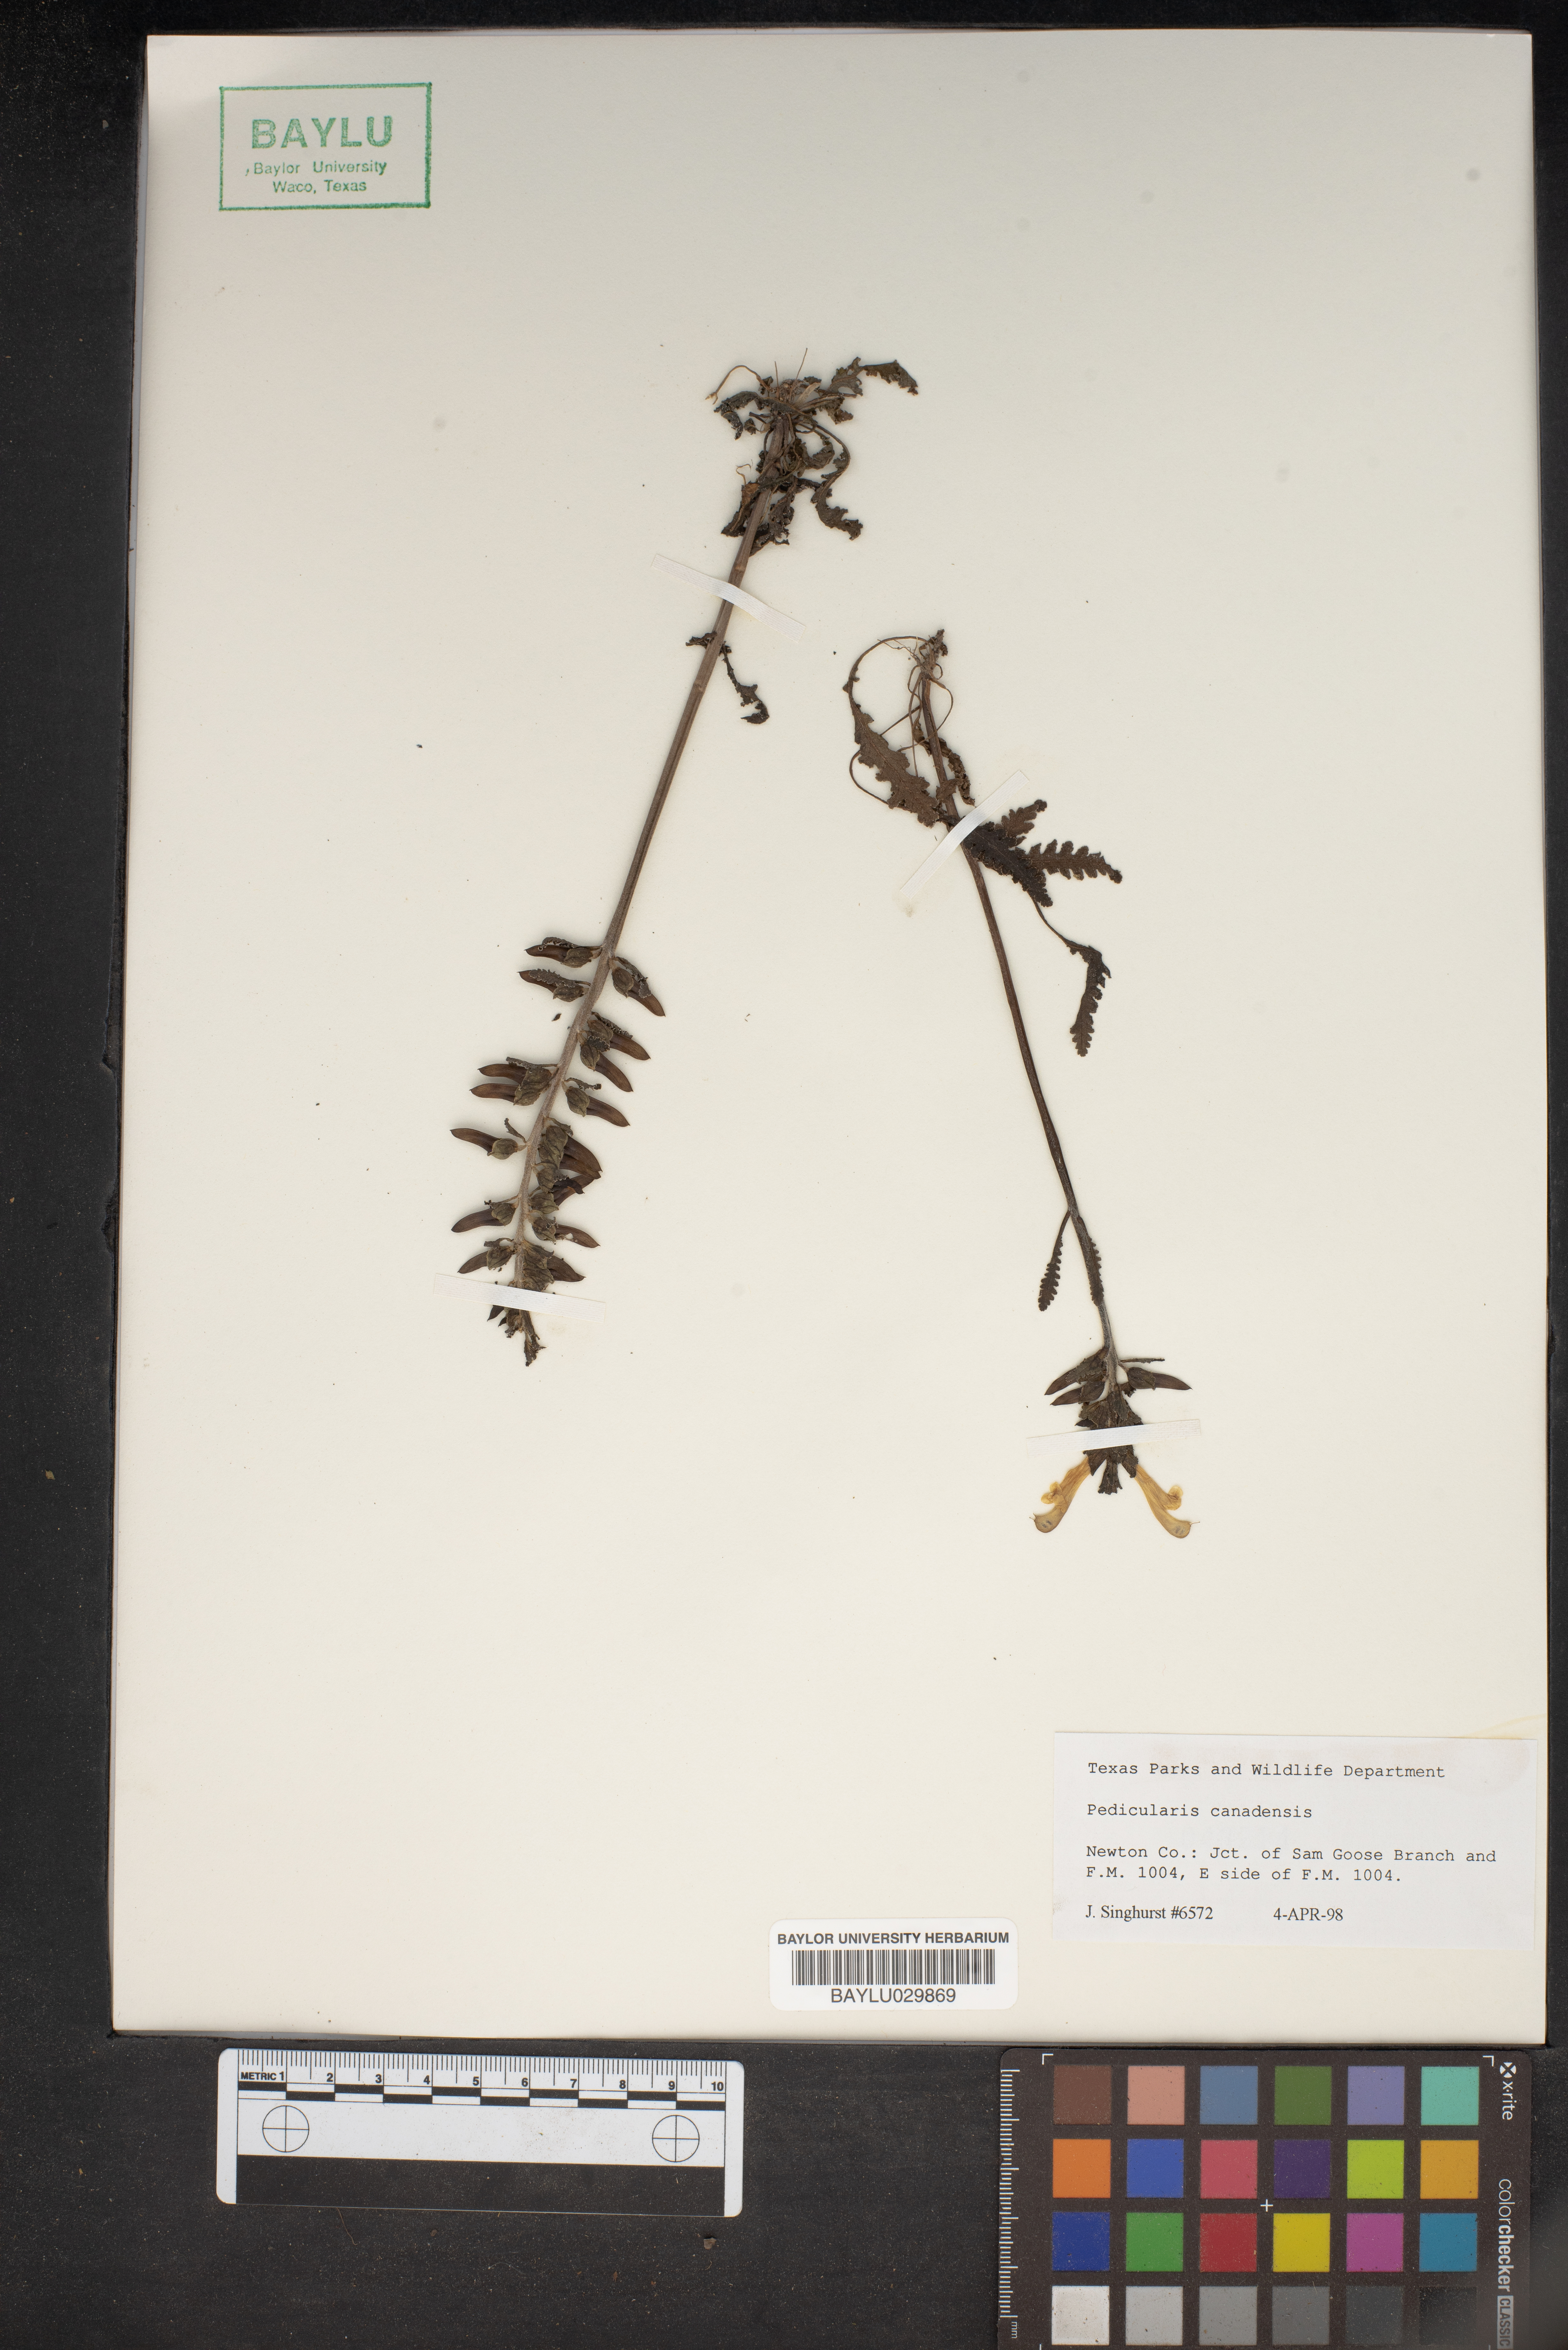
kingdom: Plantae
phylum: Tracheophyta
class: Magnoliopsida
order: Lamiales
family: Orobanchaceae
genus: Pedicularis
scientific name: Pedicularis canadensis
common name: Early lousewort
